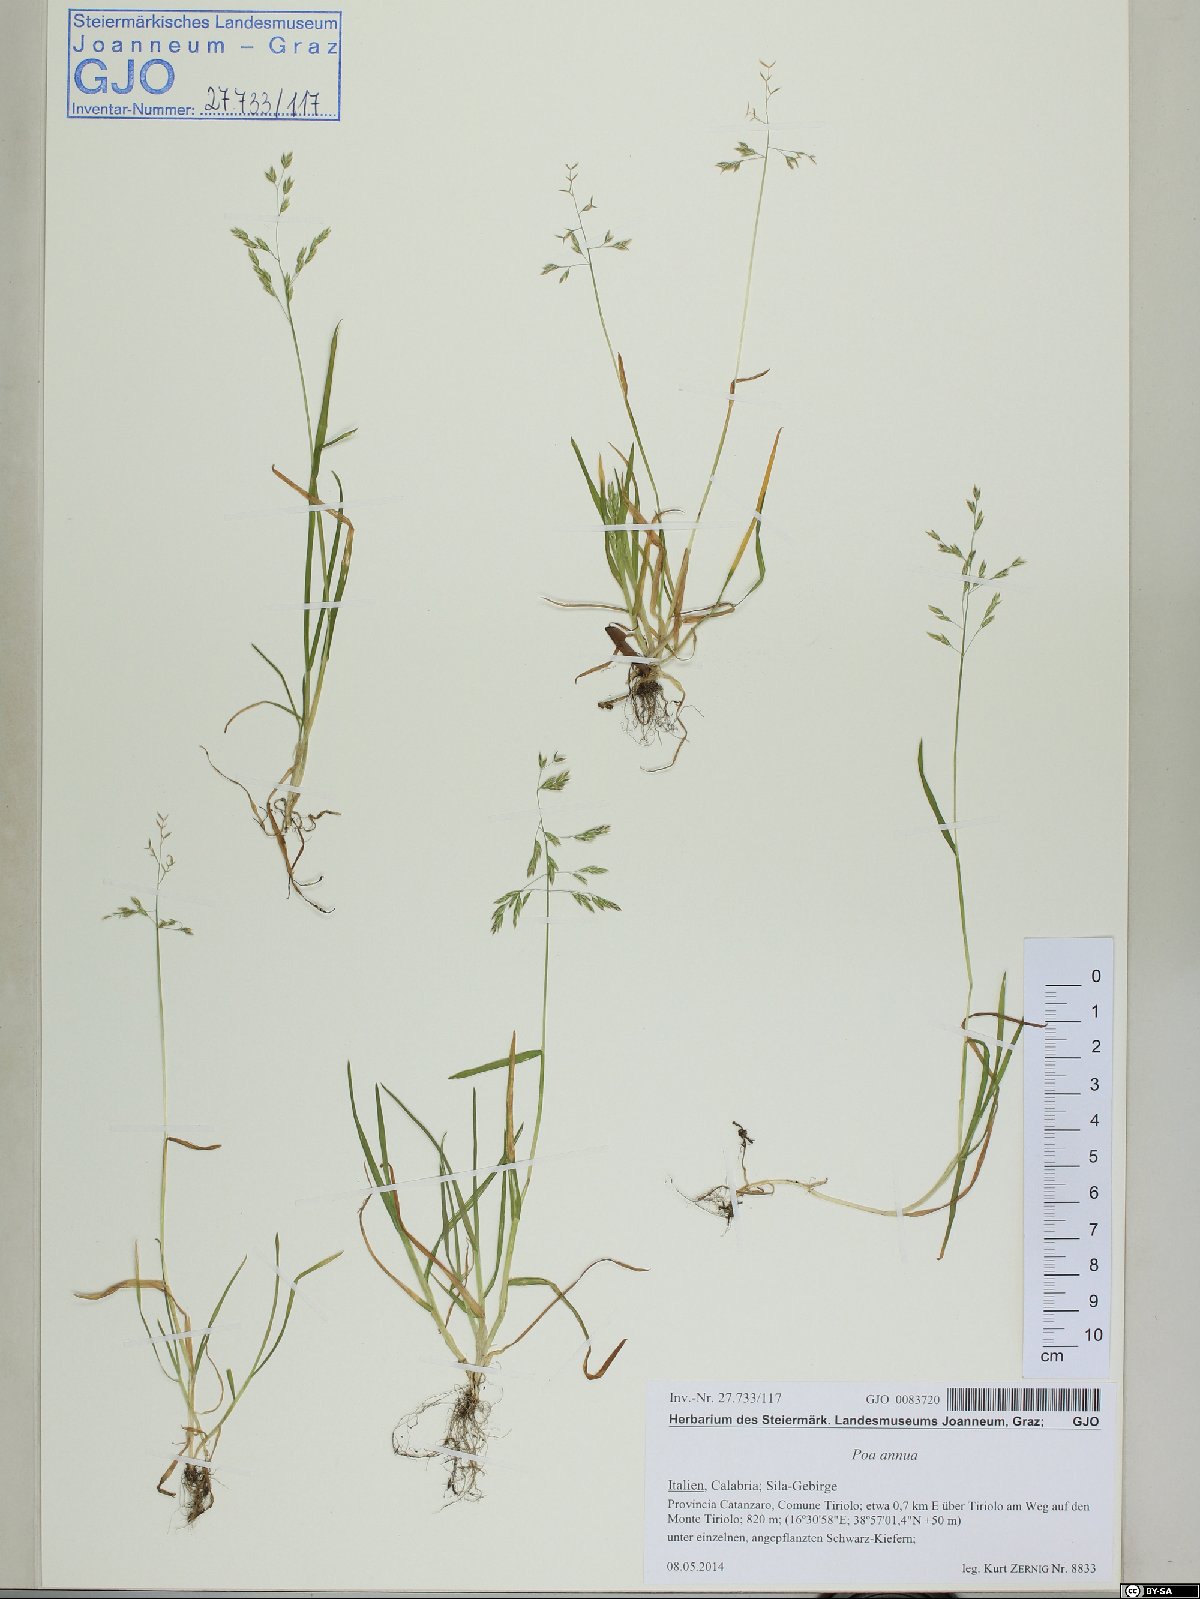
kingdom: Plantae
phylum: Tracheophyta
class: Liliopsida
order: Poales
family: Poaceae
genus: Poa
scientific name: Poa annua
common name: Annual bluegrass
